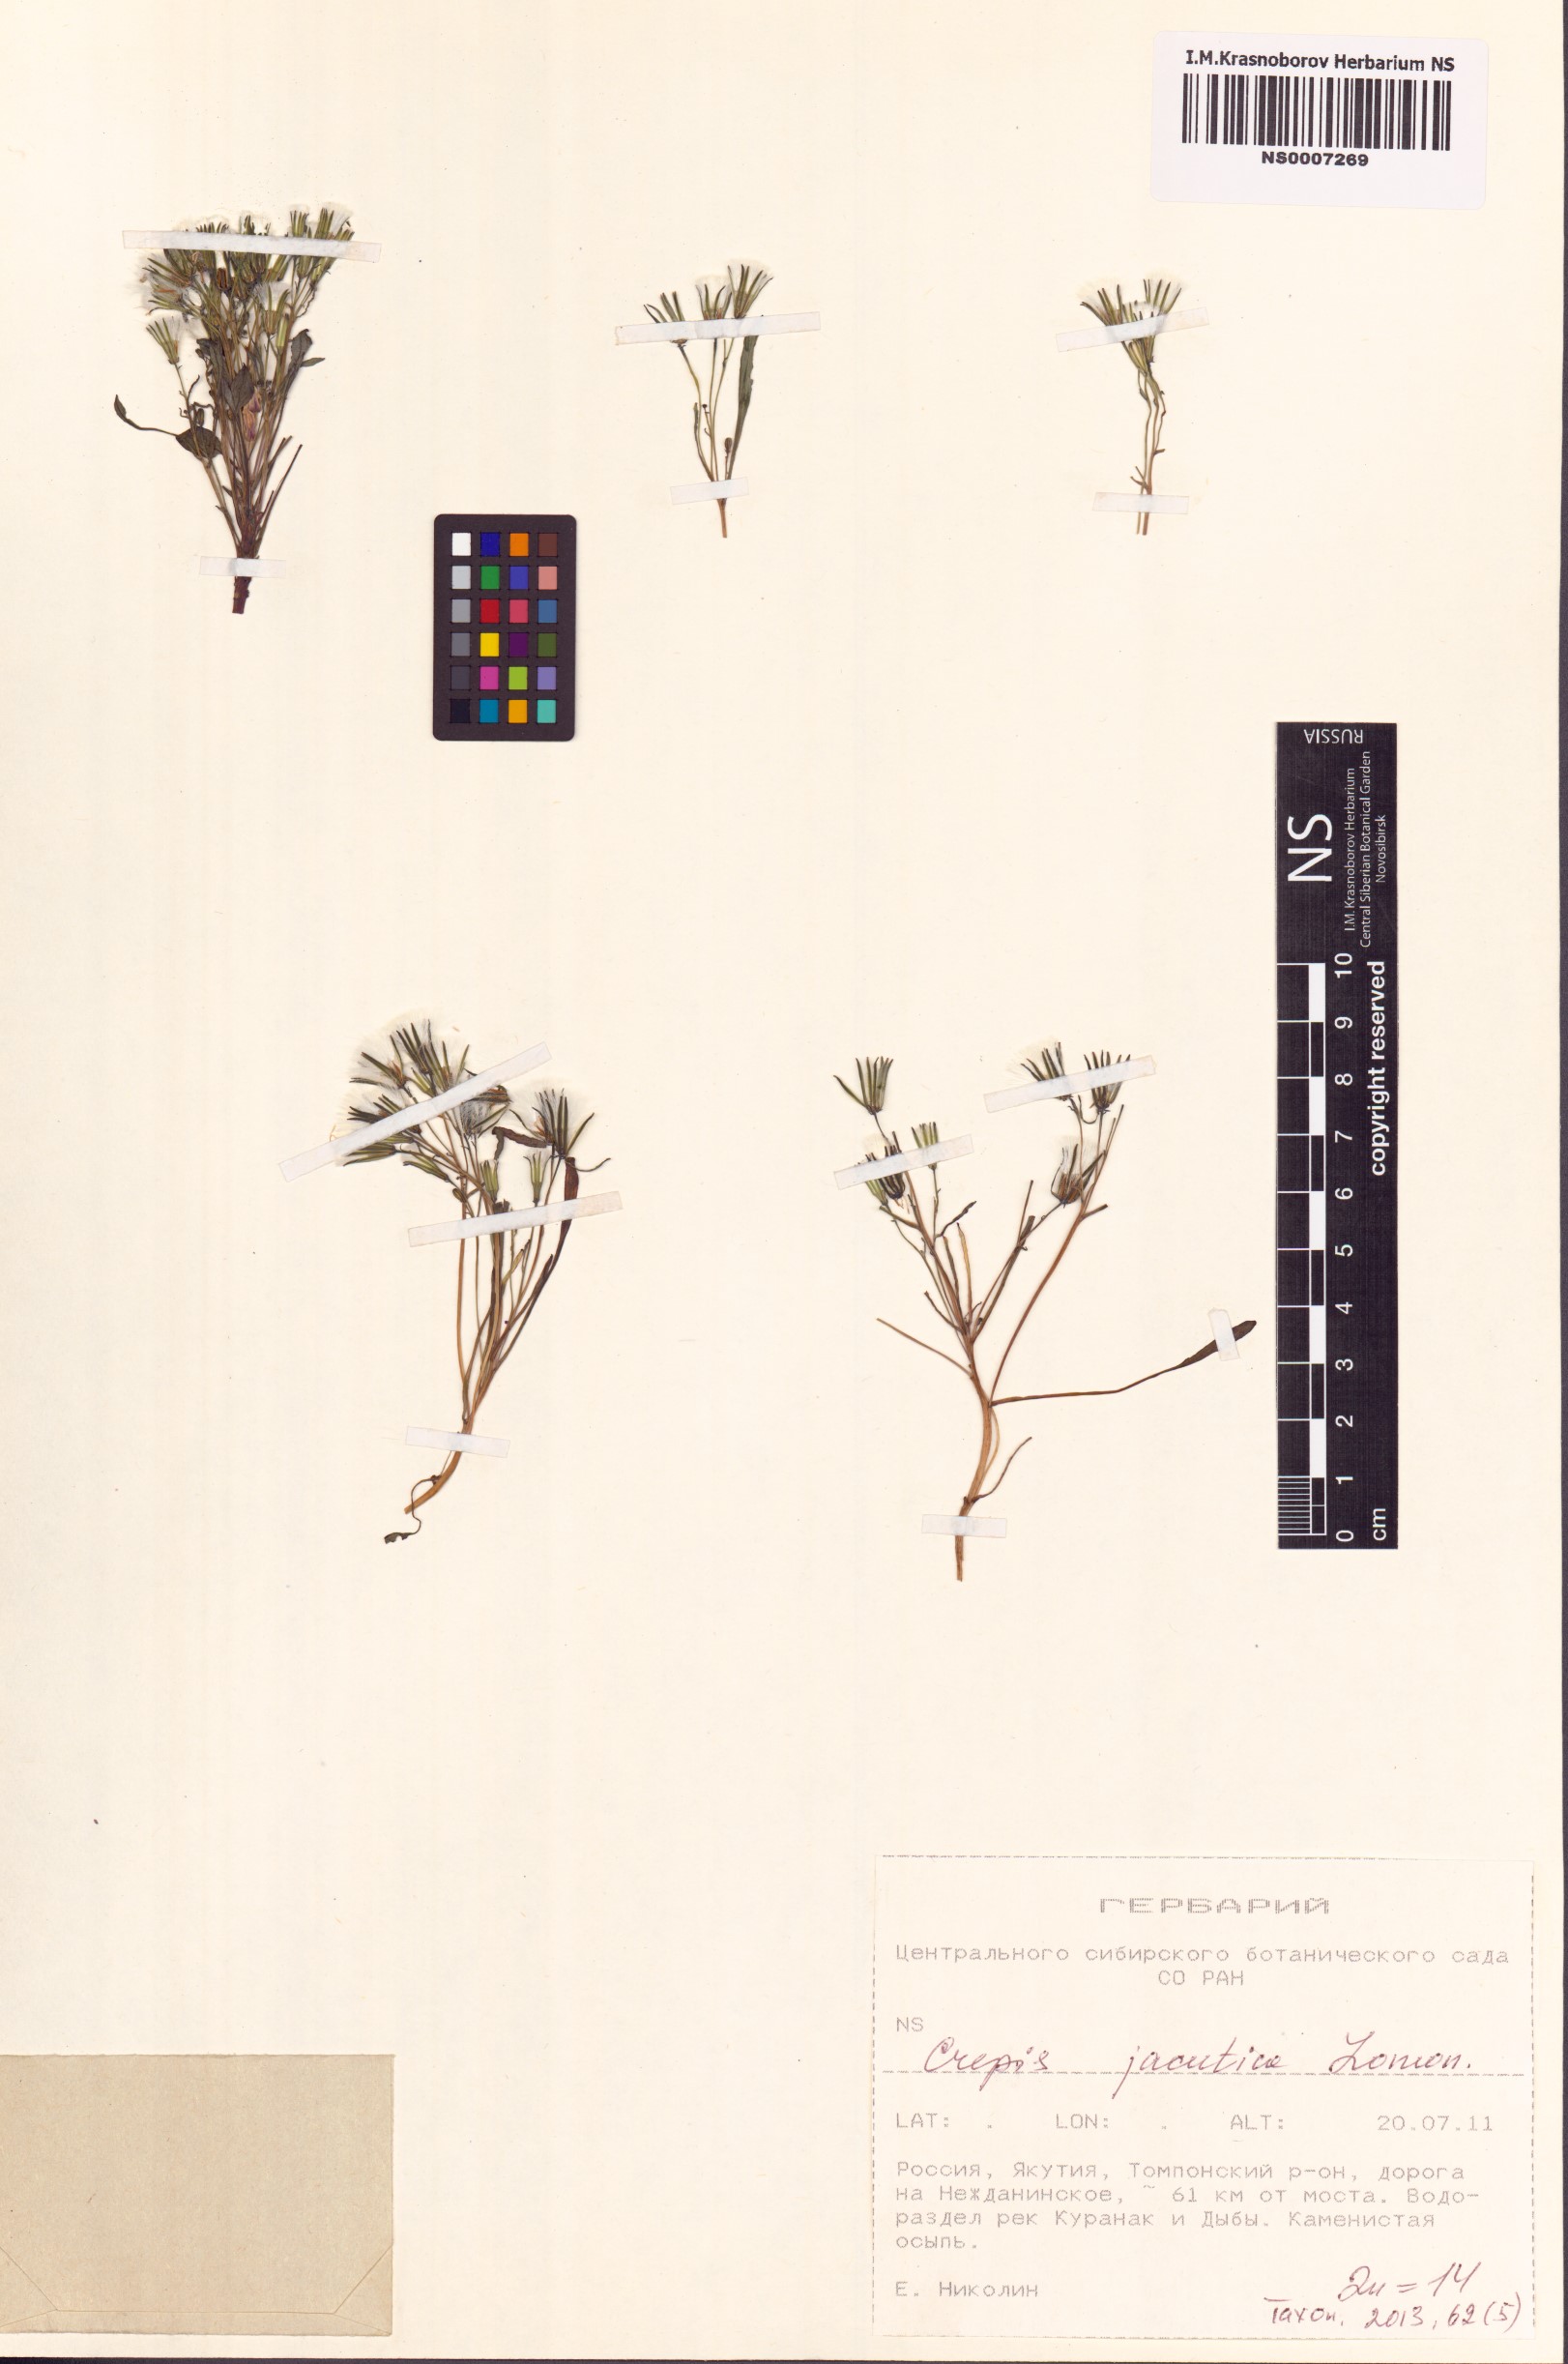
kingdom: Plantae
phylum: Tracheophyta
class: Magnoliopsida
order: Asterales
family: Asteraceae
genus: Askellia
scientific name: Askellia jacutica
